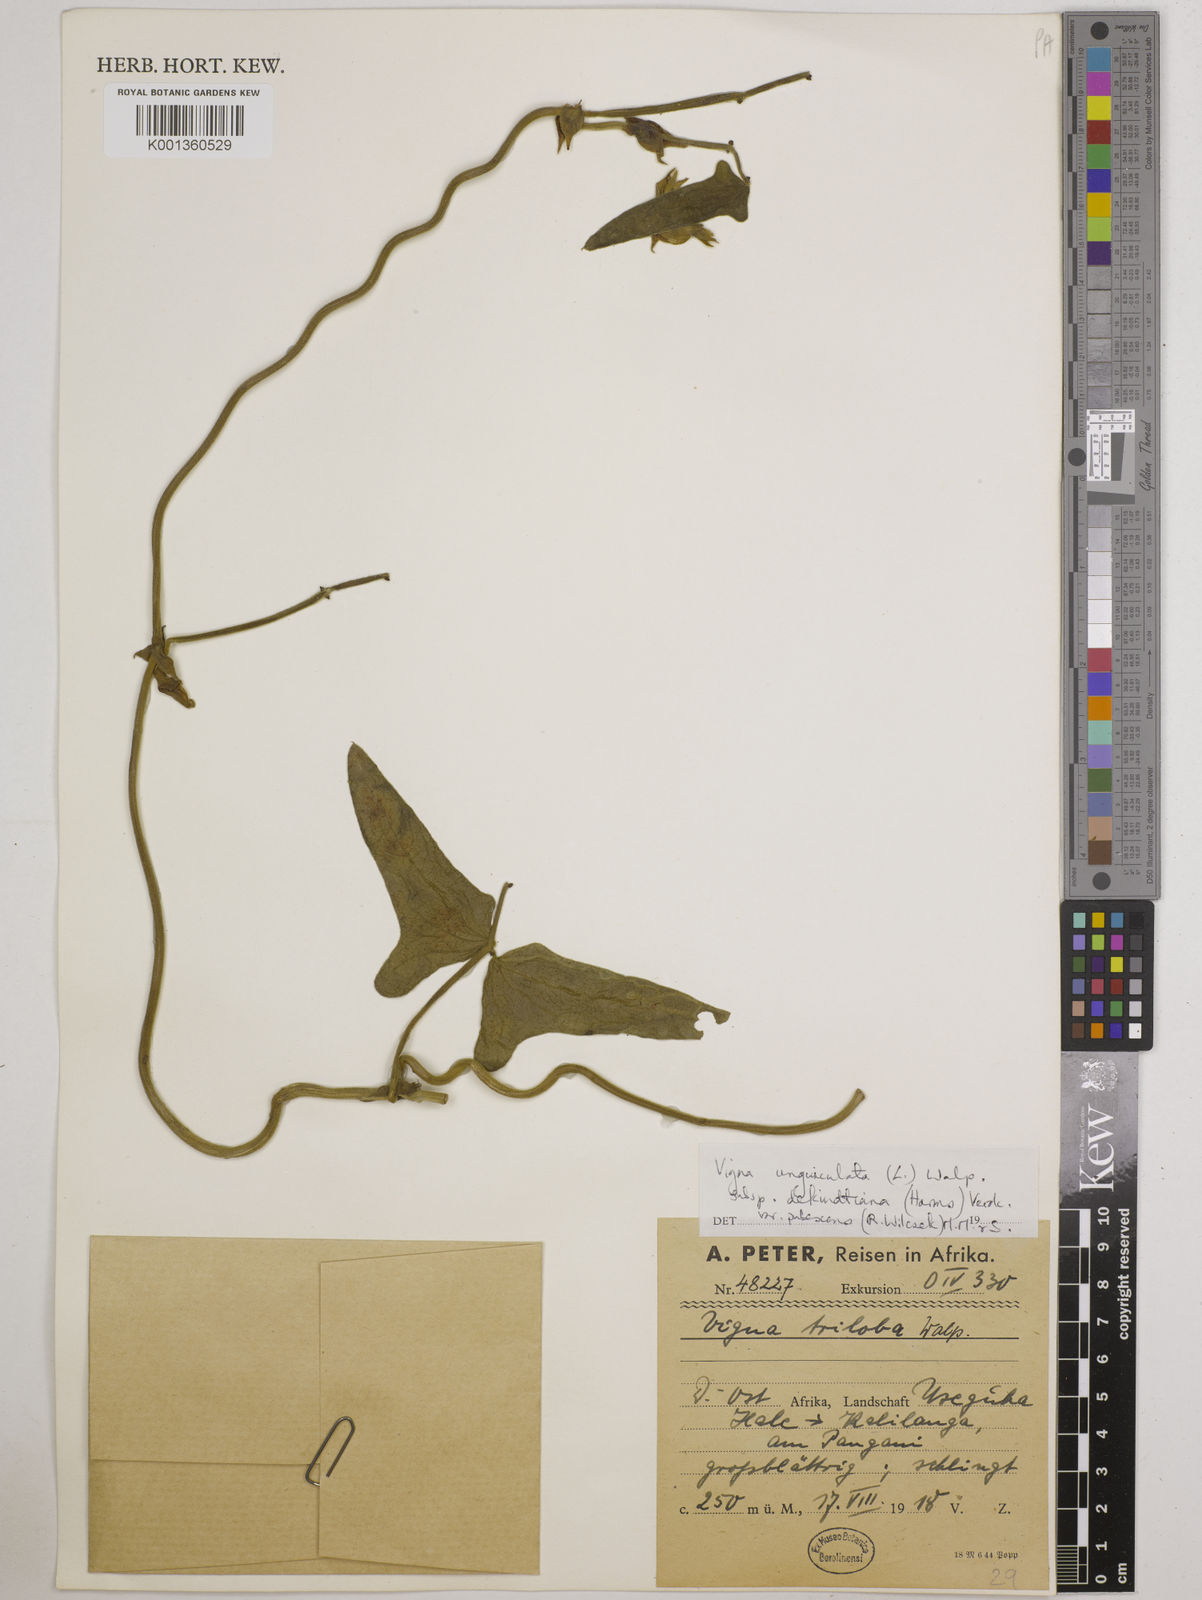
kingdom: Plantae
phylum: Tracheophyta
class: Magnoliopsida
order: Fabales
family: Fabaceae
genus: Vigna
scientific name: Vigna unguiculata
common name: Cowpea
